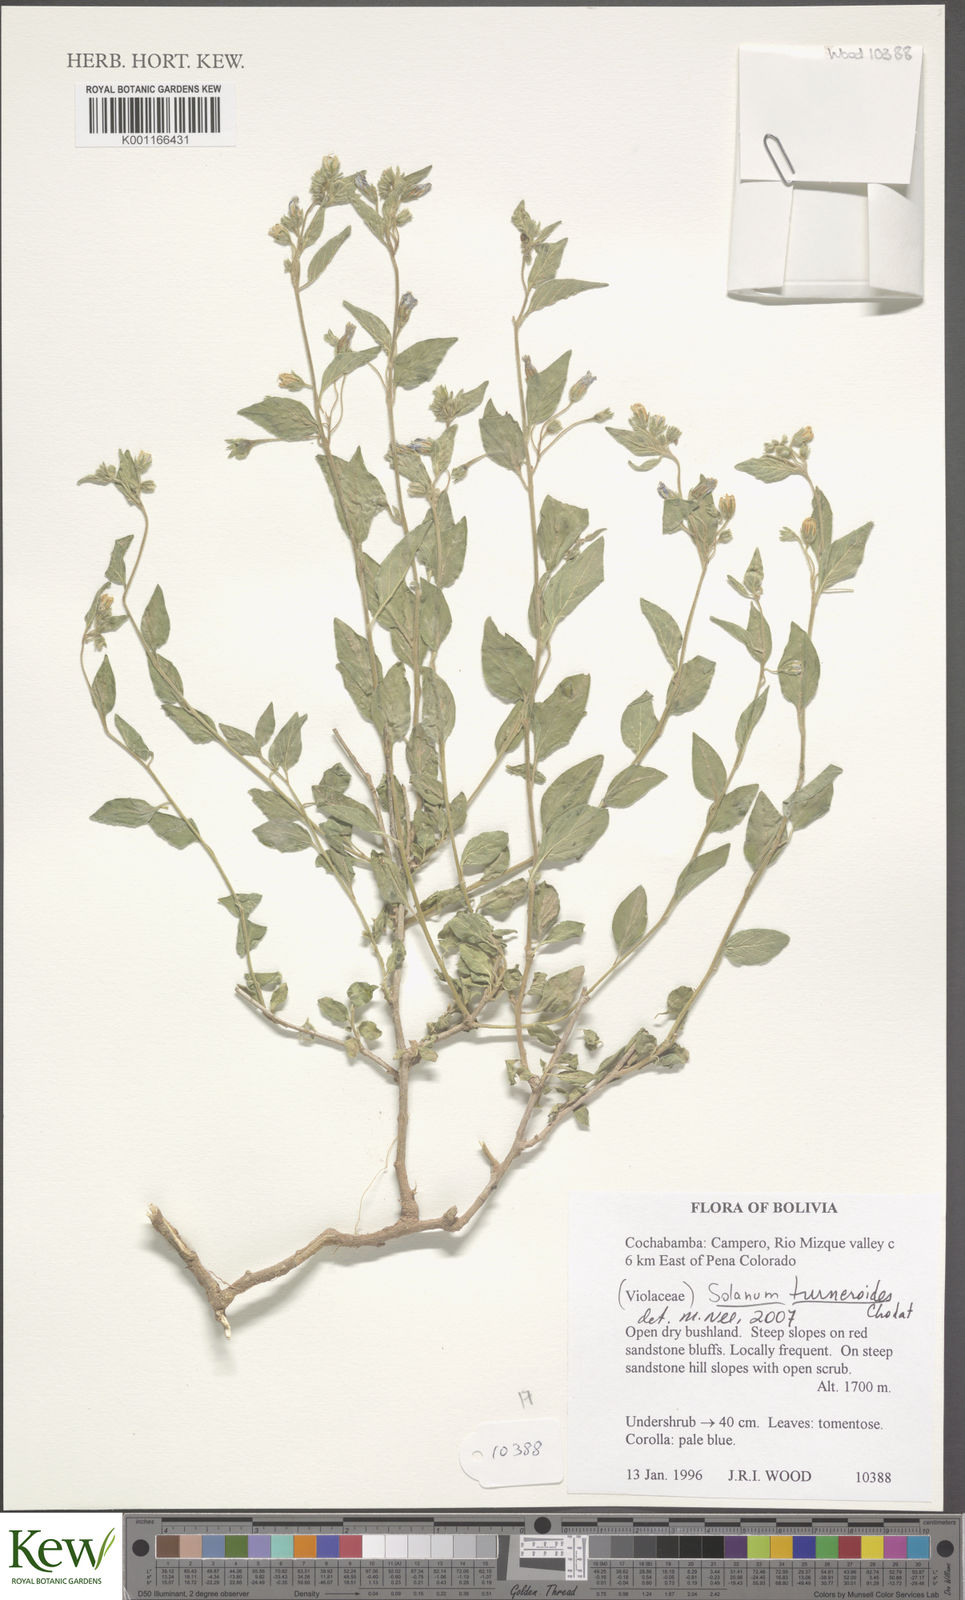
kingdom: Plantae
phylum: Tracheophyta
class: Magnoliopsida
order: Solanales
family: Solanaceae
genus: Solanum
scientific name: Solanum turneroides
